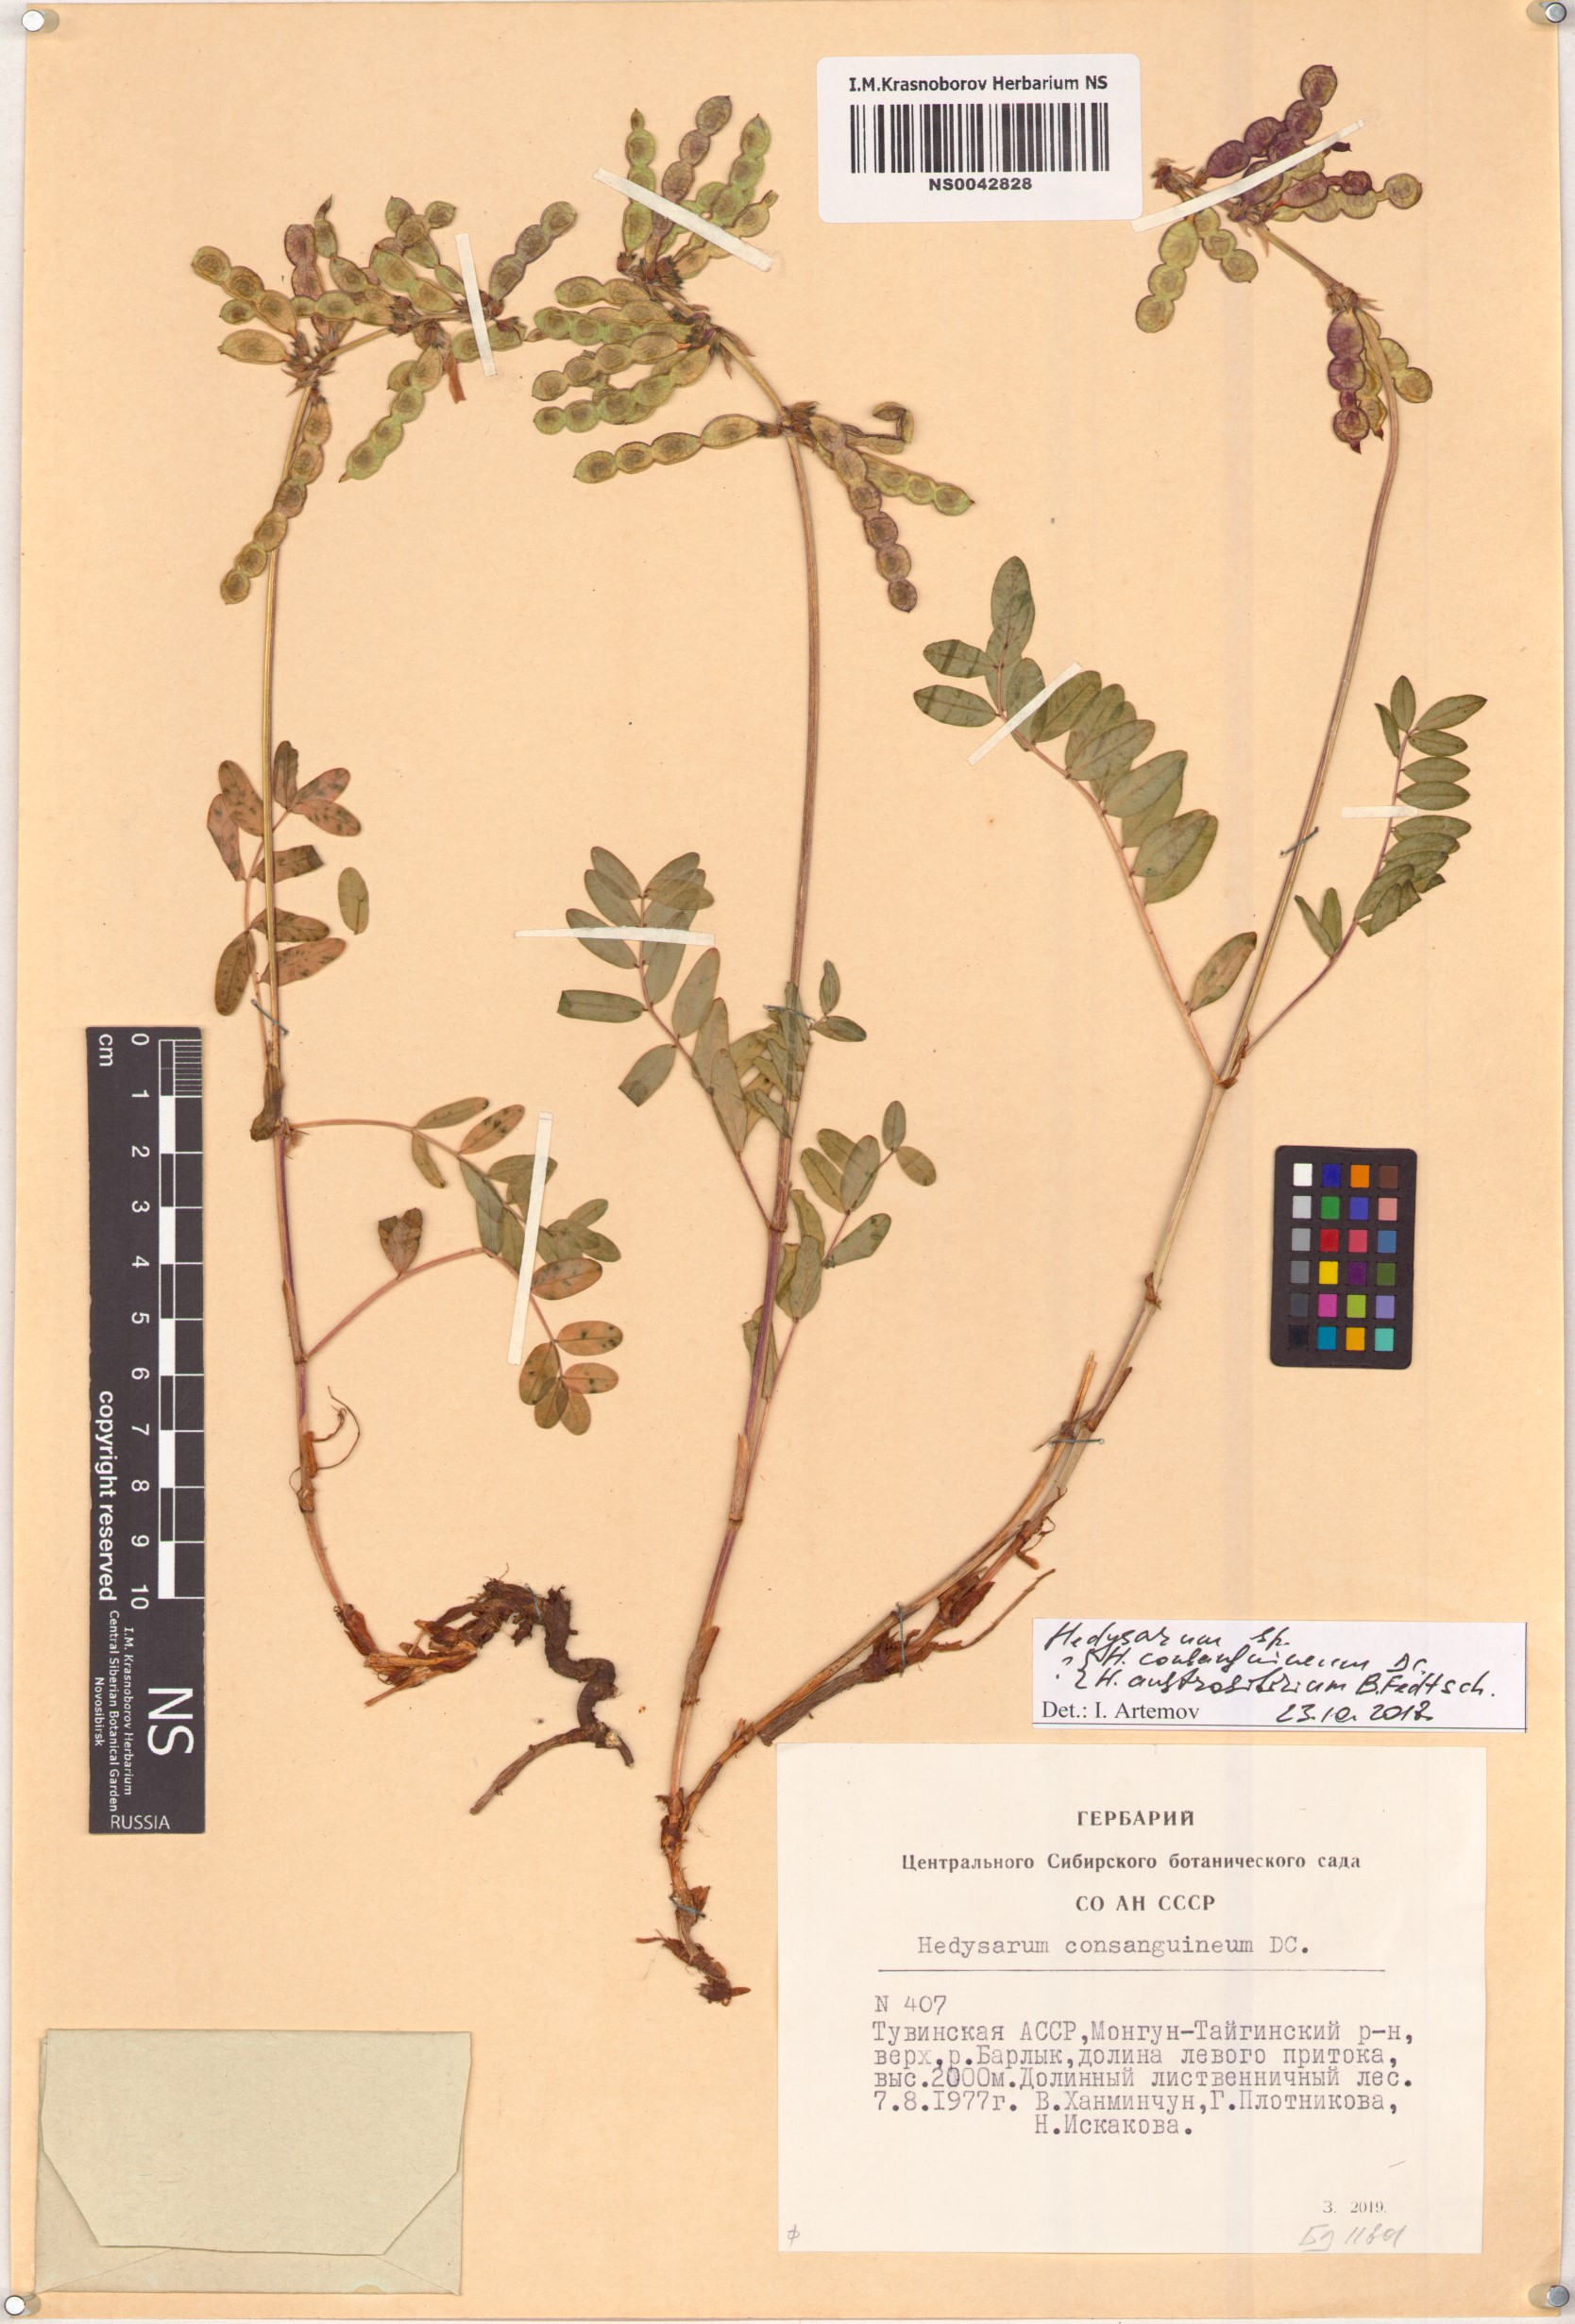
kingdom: Plantae
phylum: Tracheophyta
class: Magnoliopsida
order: Fabales
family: Fabaceae
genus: Hedysarum
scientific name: Hedysarum consanguineum
